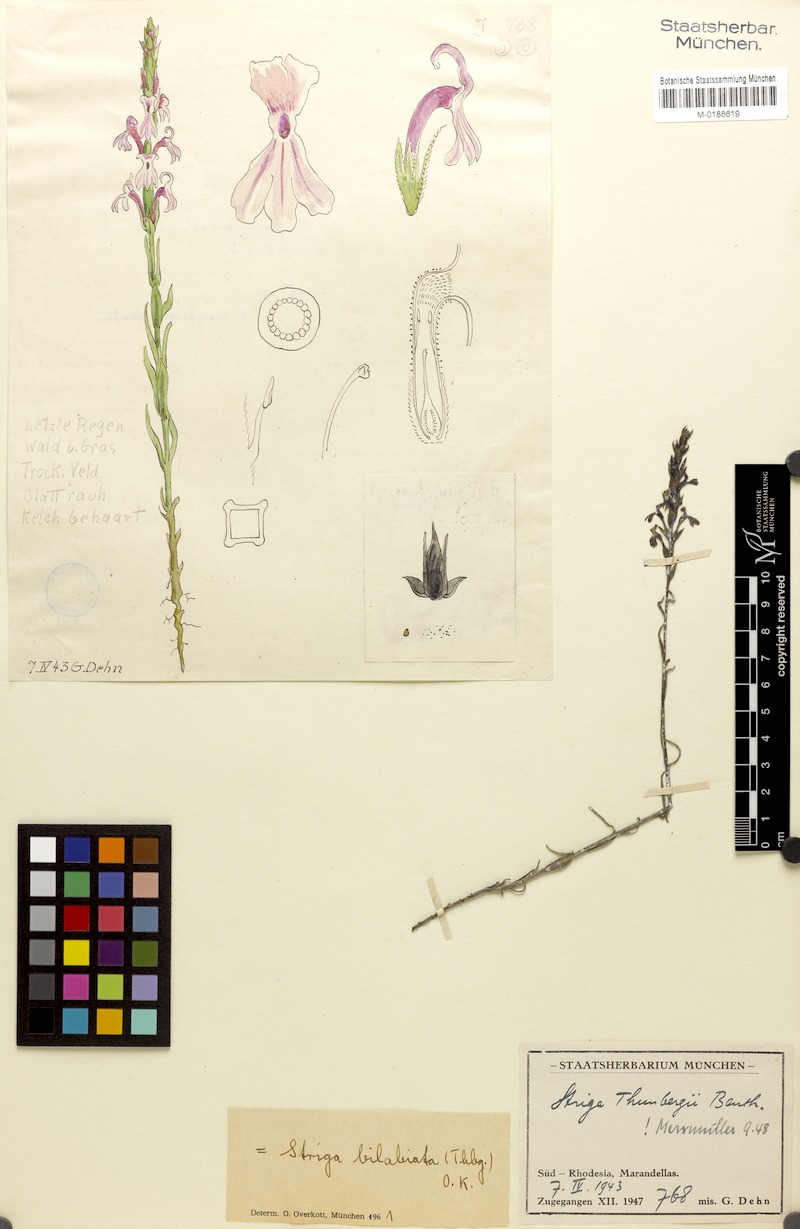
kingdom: Plantae
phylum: Tracheophyta
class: Magnoliopsida
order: Lamiales
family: Orobanchaceae
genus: Striga
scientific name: Striga bilabiata
